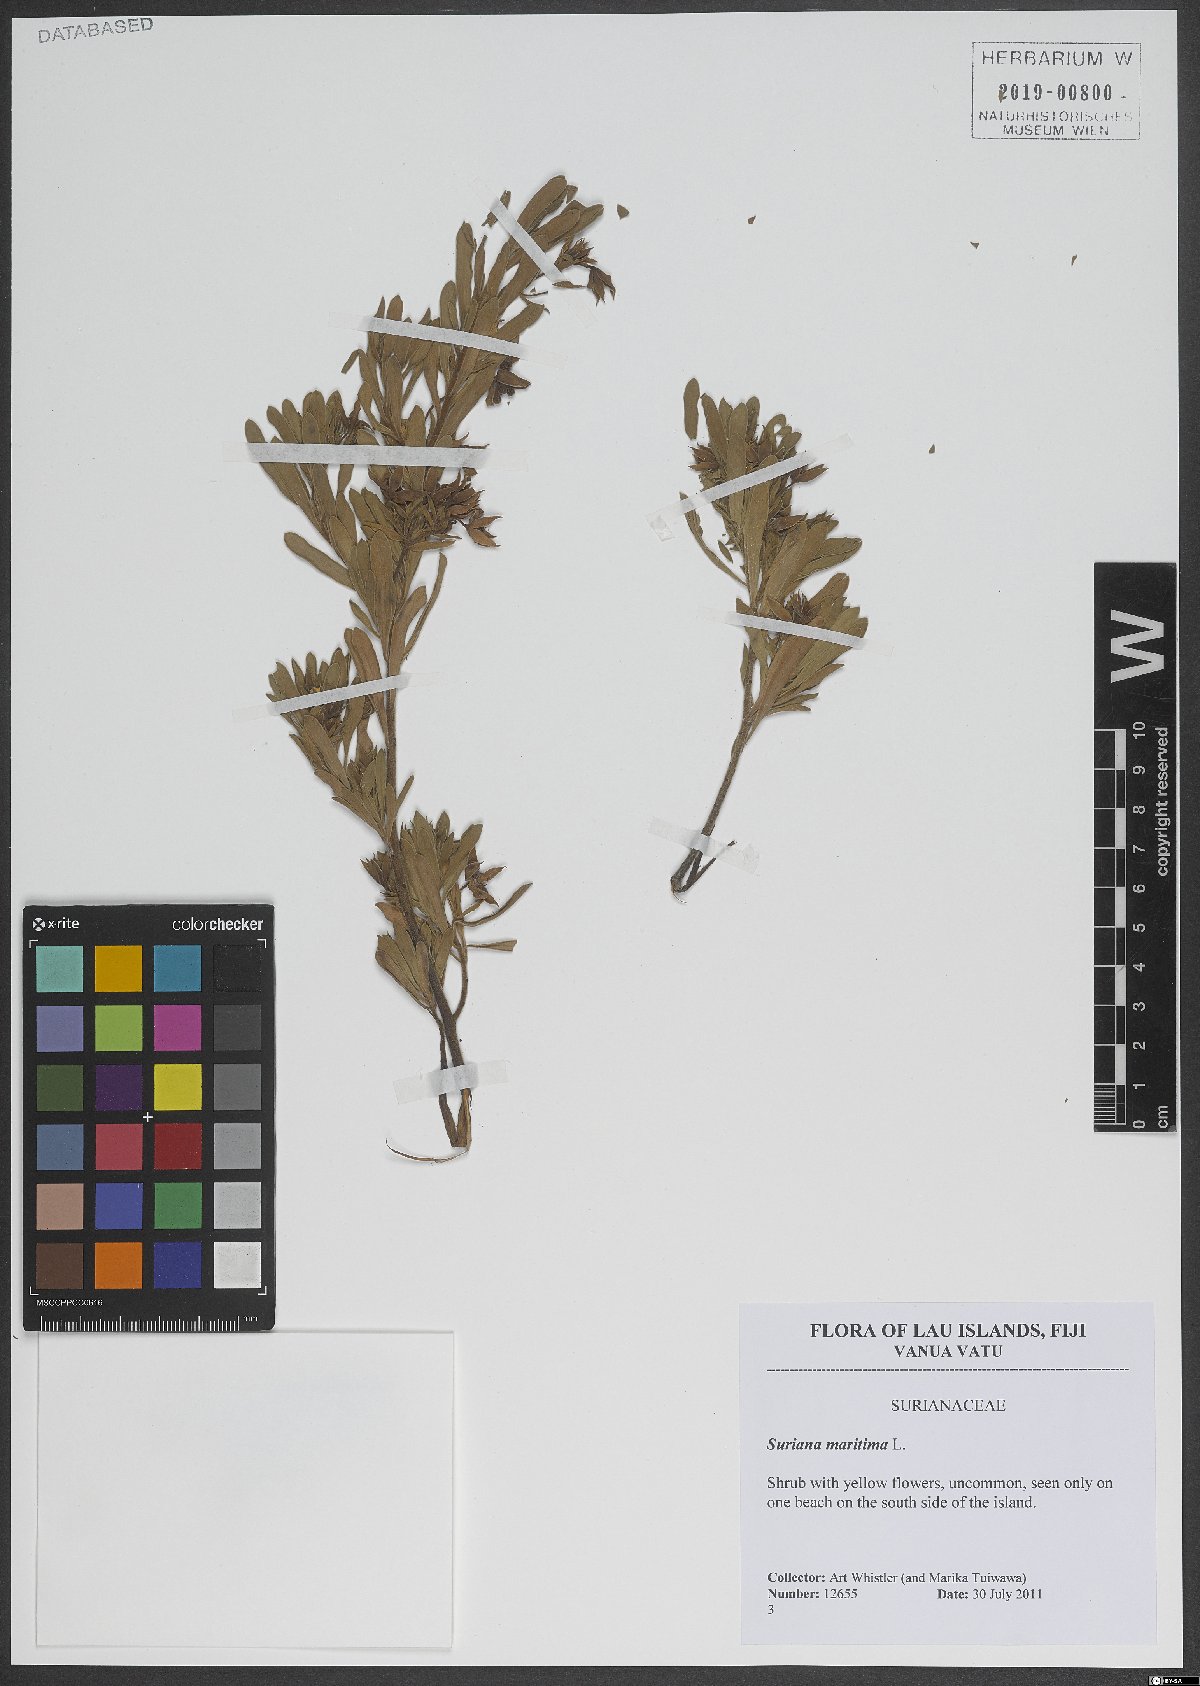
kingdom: Plantae
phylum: Tracheophyta
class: Magnoliopsida
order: Fabales
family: Surianaceae
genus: Suriana
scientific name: Suriana maritima
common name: Bay-cedar
